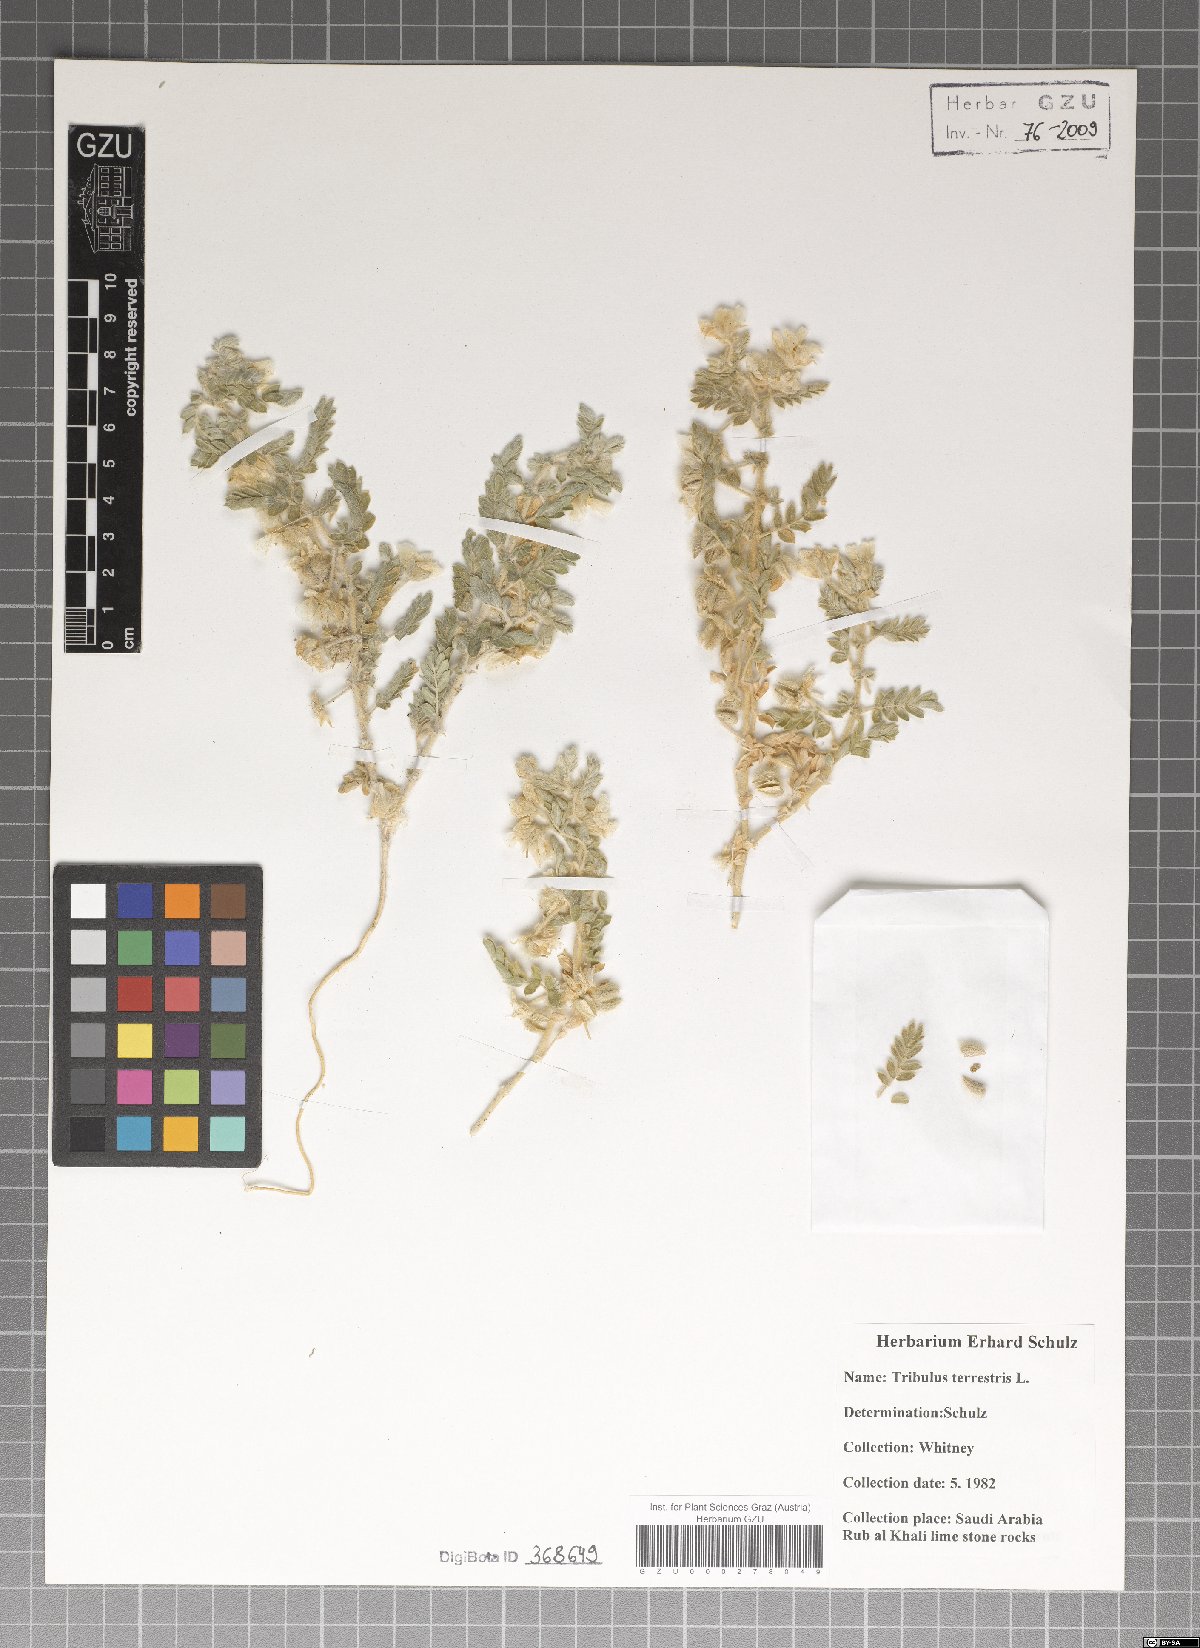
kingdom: Plantae
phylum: Tracheophyta
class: Magnoliopsida
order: Zygophyllales
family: Zygophyllaceae
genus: Tribulus
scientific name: Tribulus terrestris
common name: Puncturevine
